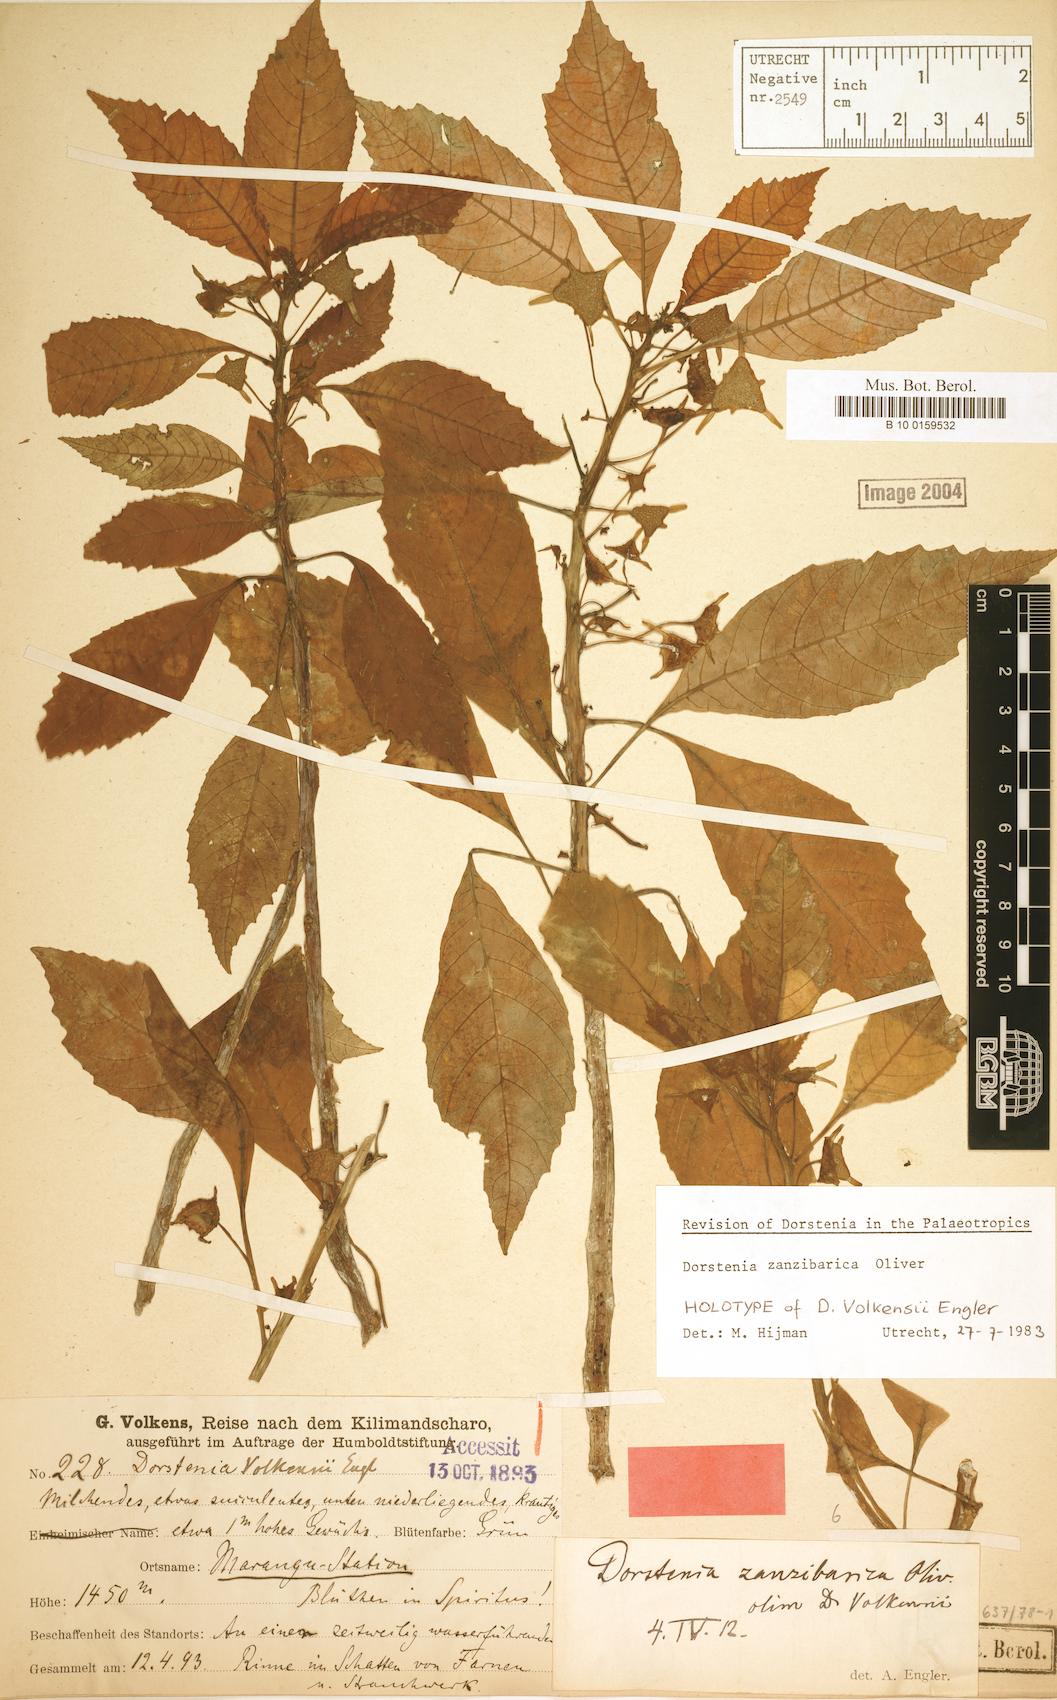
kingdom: Plantae
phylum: Tracheophyta
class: Magnoliopsida
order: Rosales
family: Moraceae
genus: Dorstenia
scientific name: Dorstenia zanzibarica
